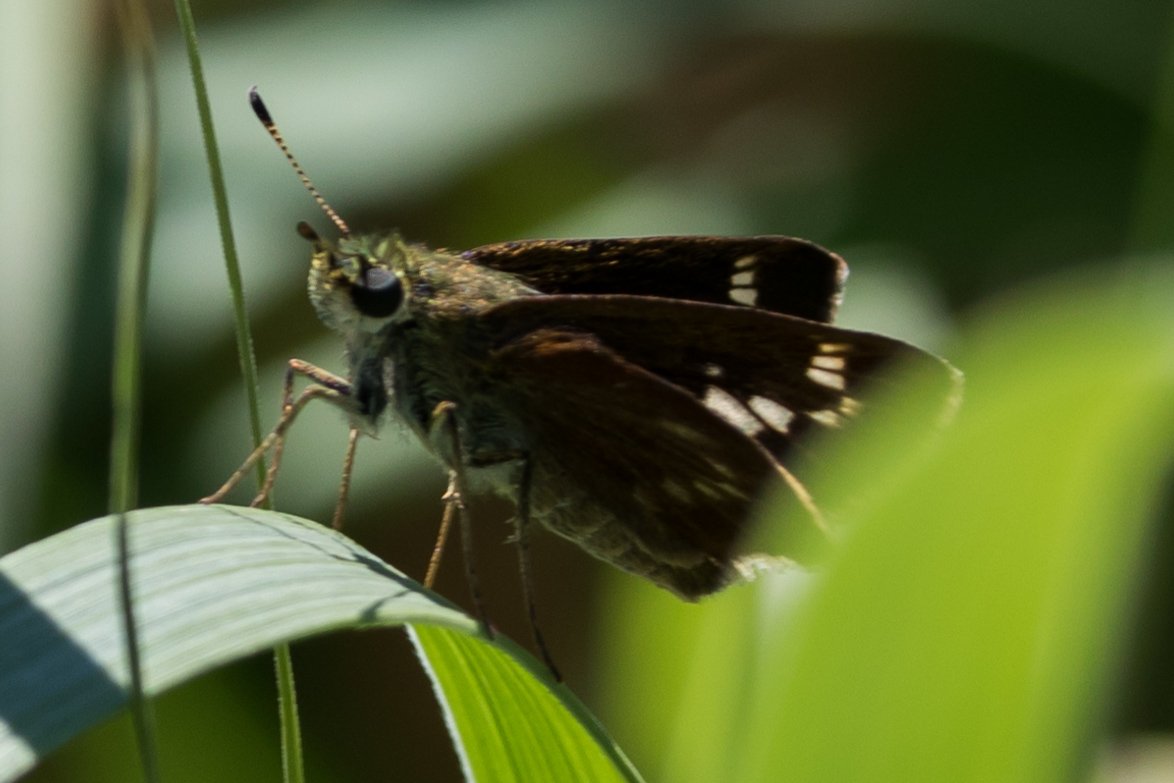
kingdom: Animalia
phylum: Arthropoda
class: Insecta
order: Lepidoptera
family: Hesperiidae
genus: Vernia
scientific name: Vernia verna
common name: Little Glassywing
